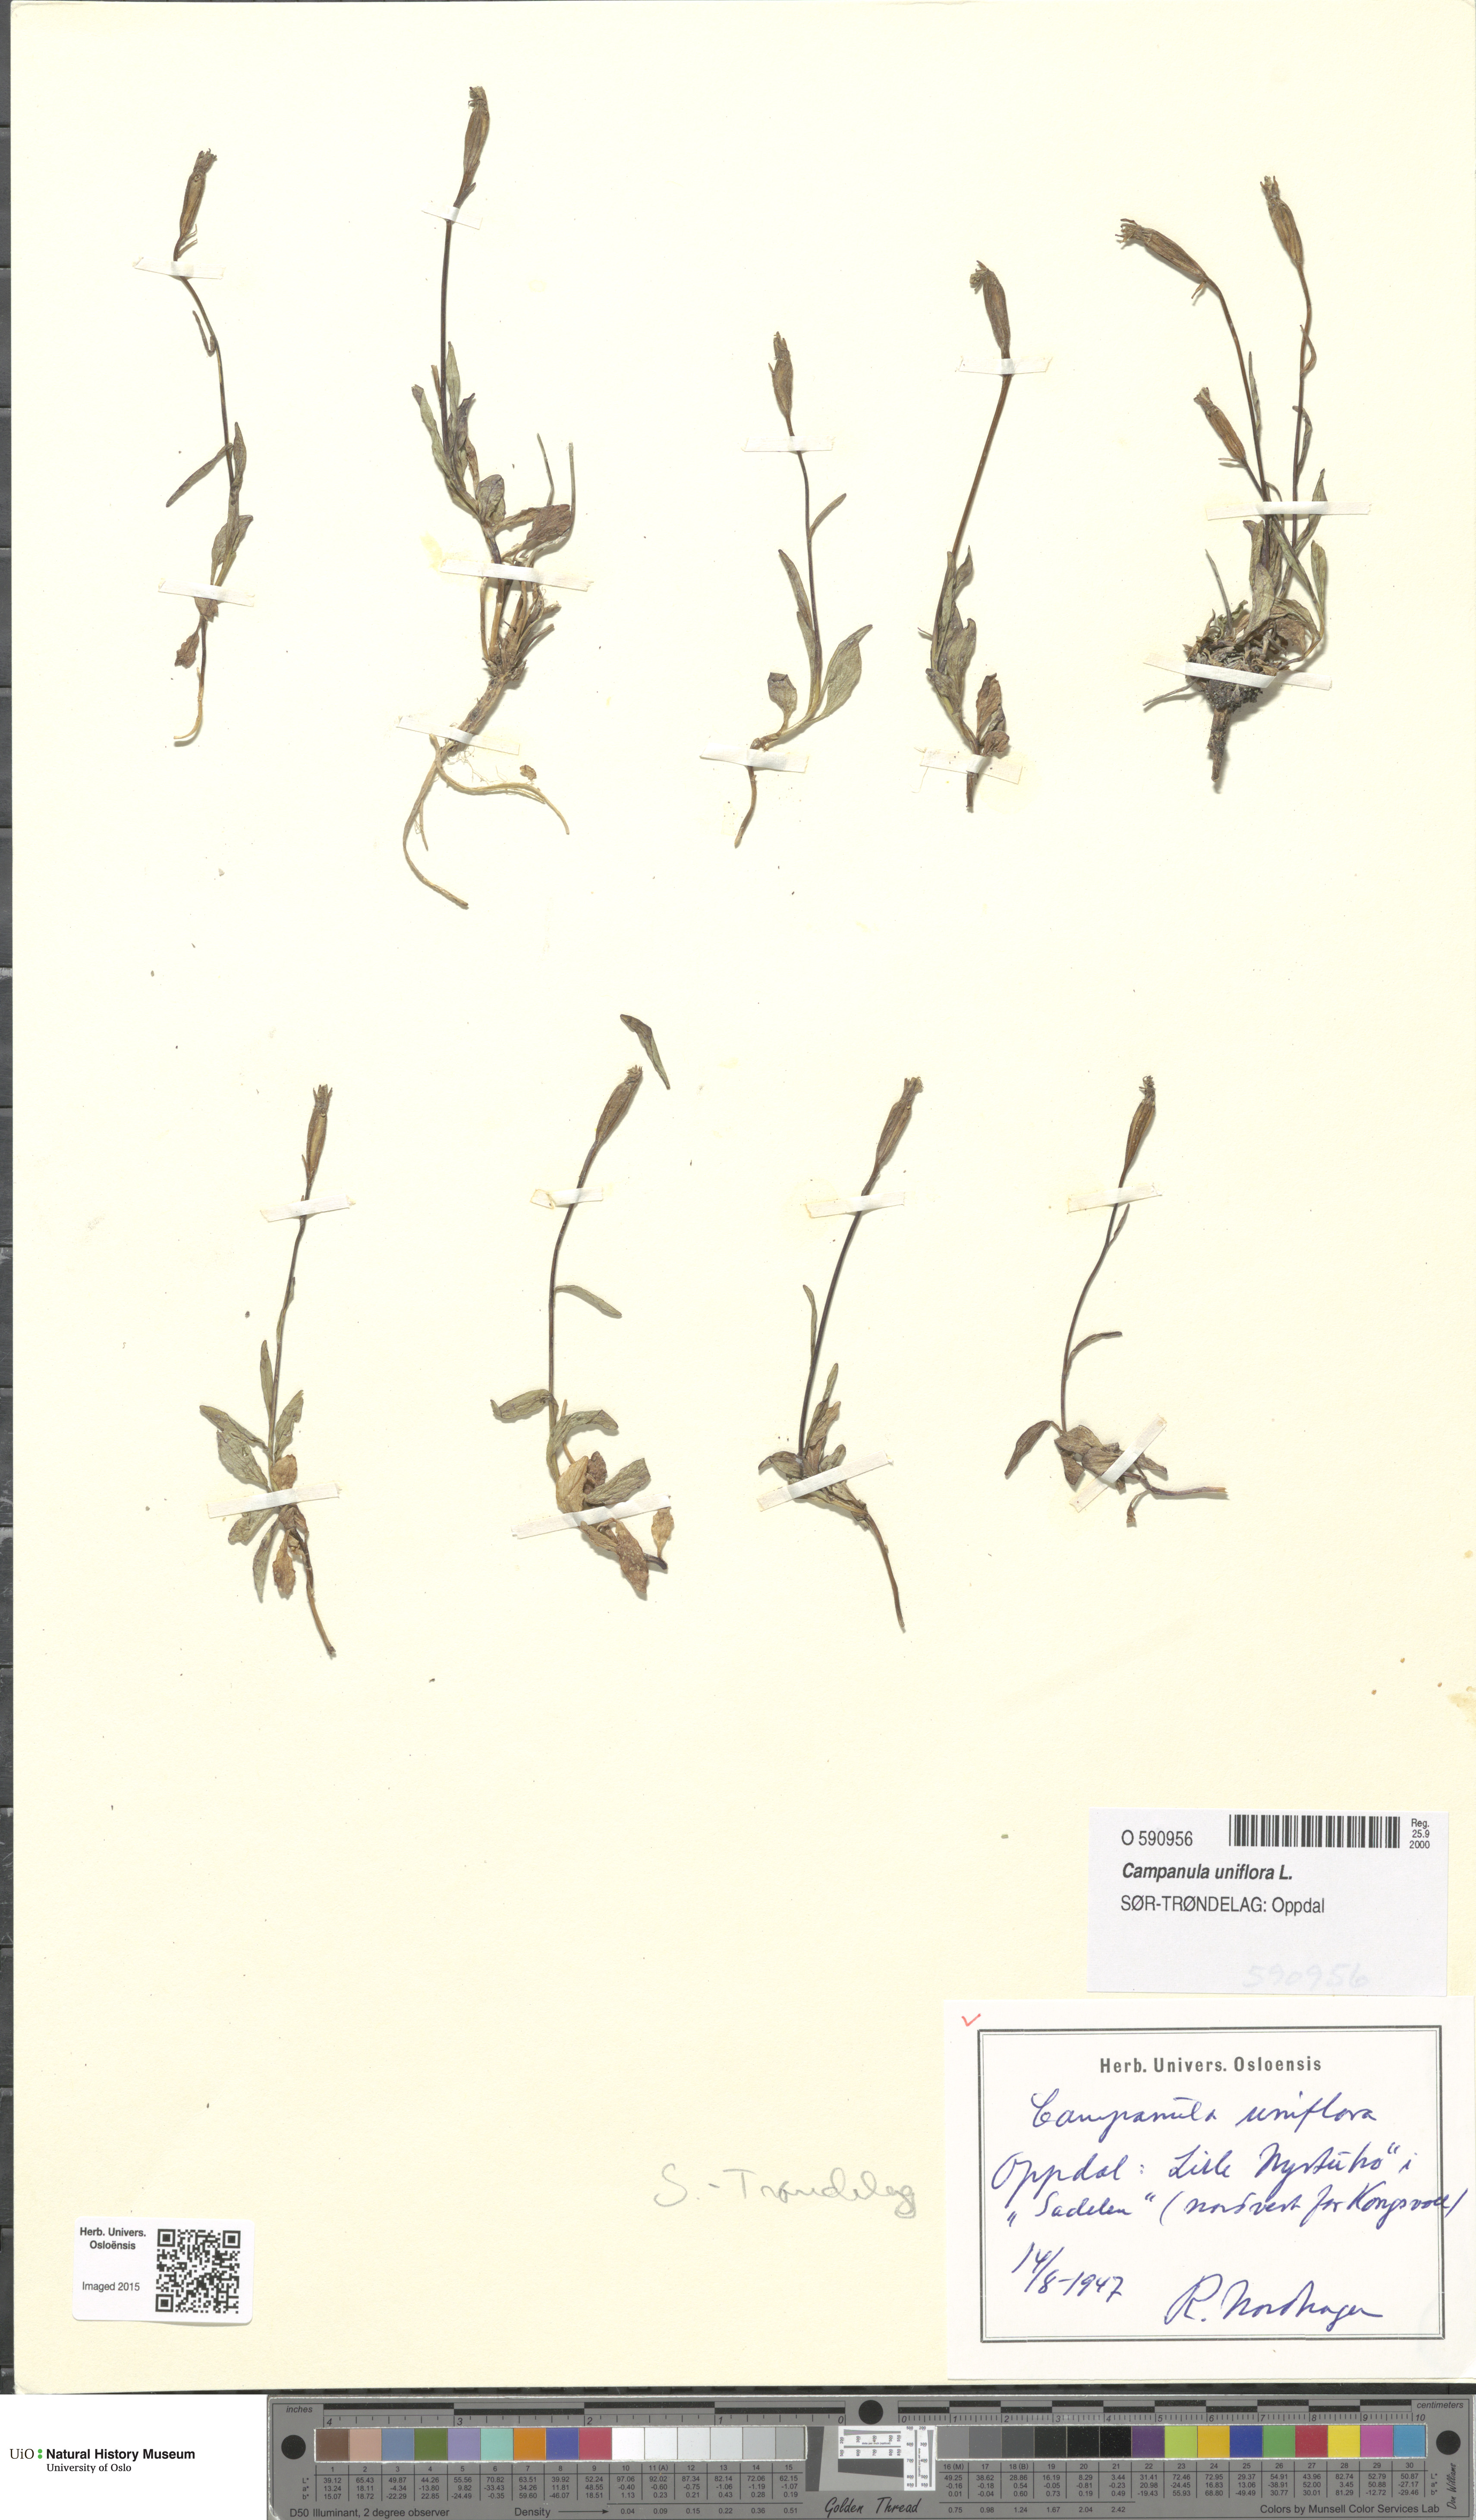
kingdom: Plantae
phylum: Tracheophyta
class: Magnoliopsida
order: Asterales
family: Campanulaceae
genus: Melanocalyx
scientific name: Melanocalyx uniflora
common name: Alpine harebell
